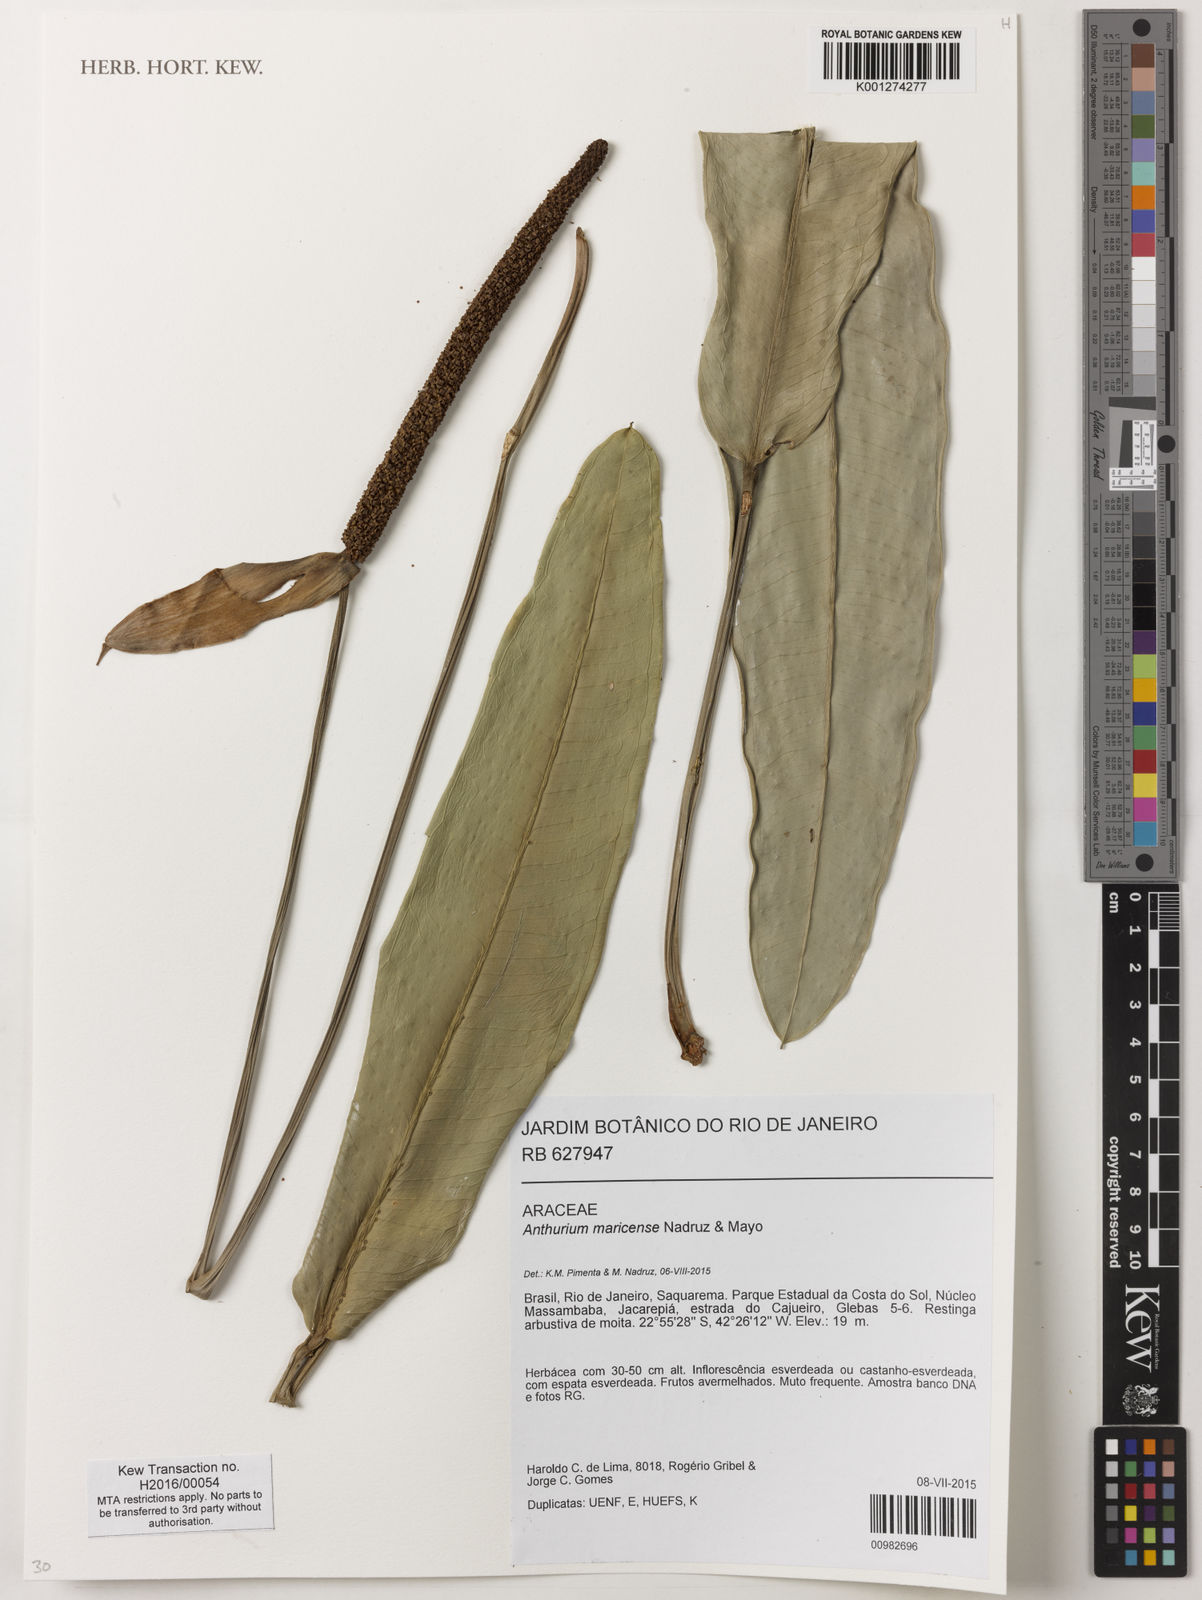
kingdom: Plantae
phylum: Tracheophyta
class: Liliopsida
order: Alismatales
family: Araceae
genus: Anthurium
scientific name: Anthurium maricense
